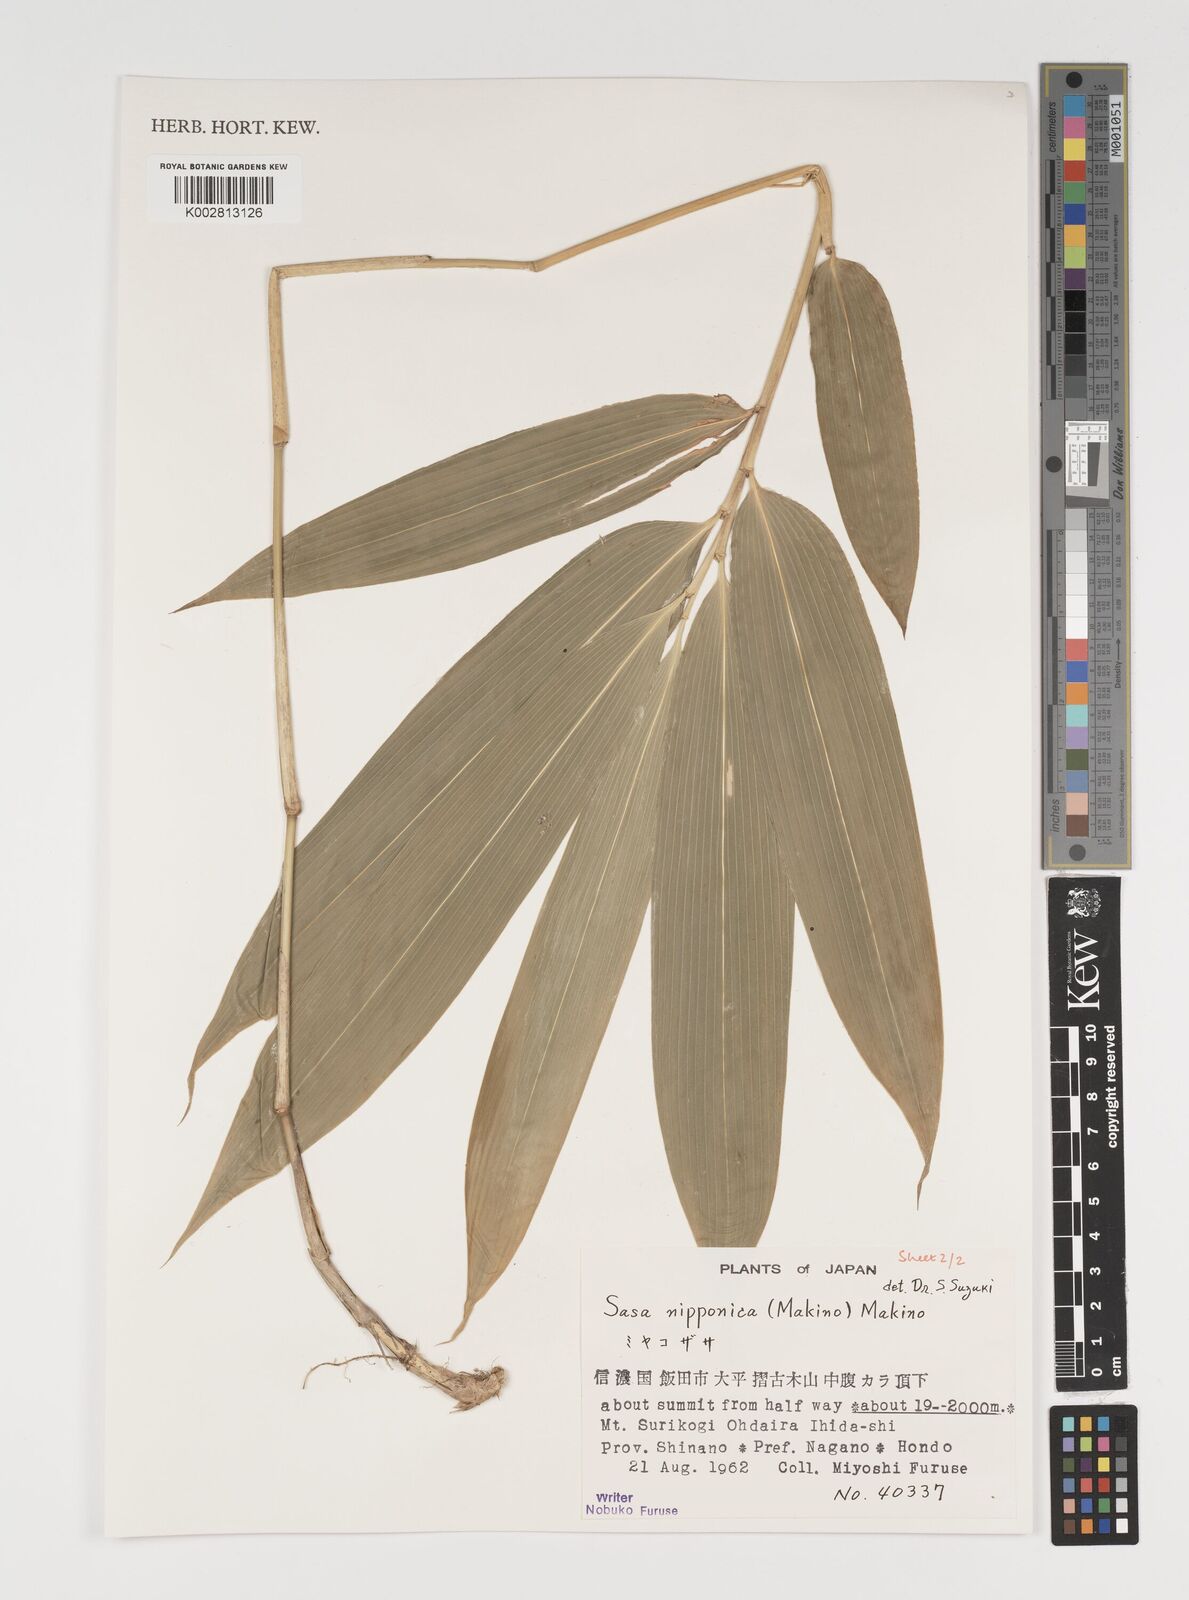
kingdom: Plantae
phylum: Tracheophyta
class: Liliopsida
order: Poales
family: Poaceae
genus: Sasa
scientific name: Sasa nipponica
